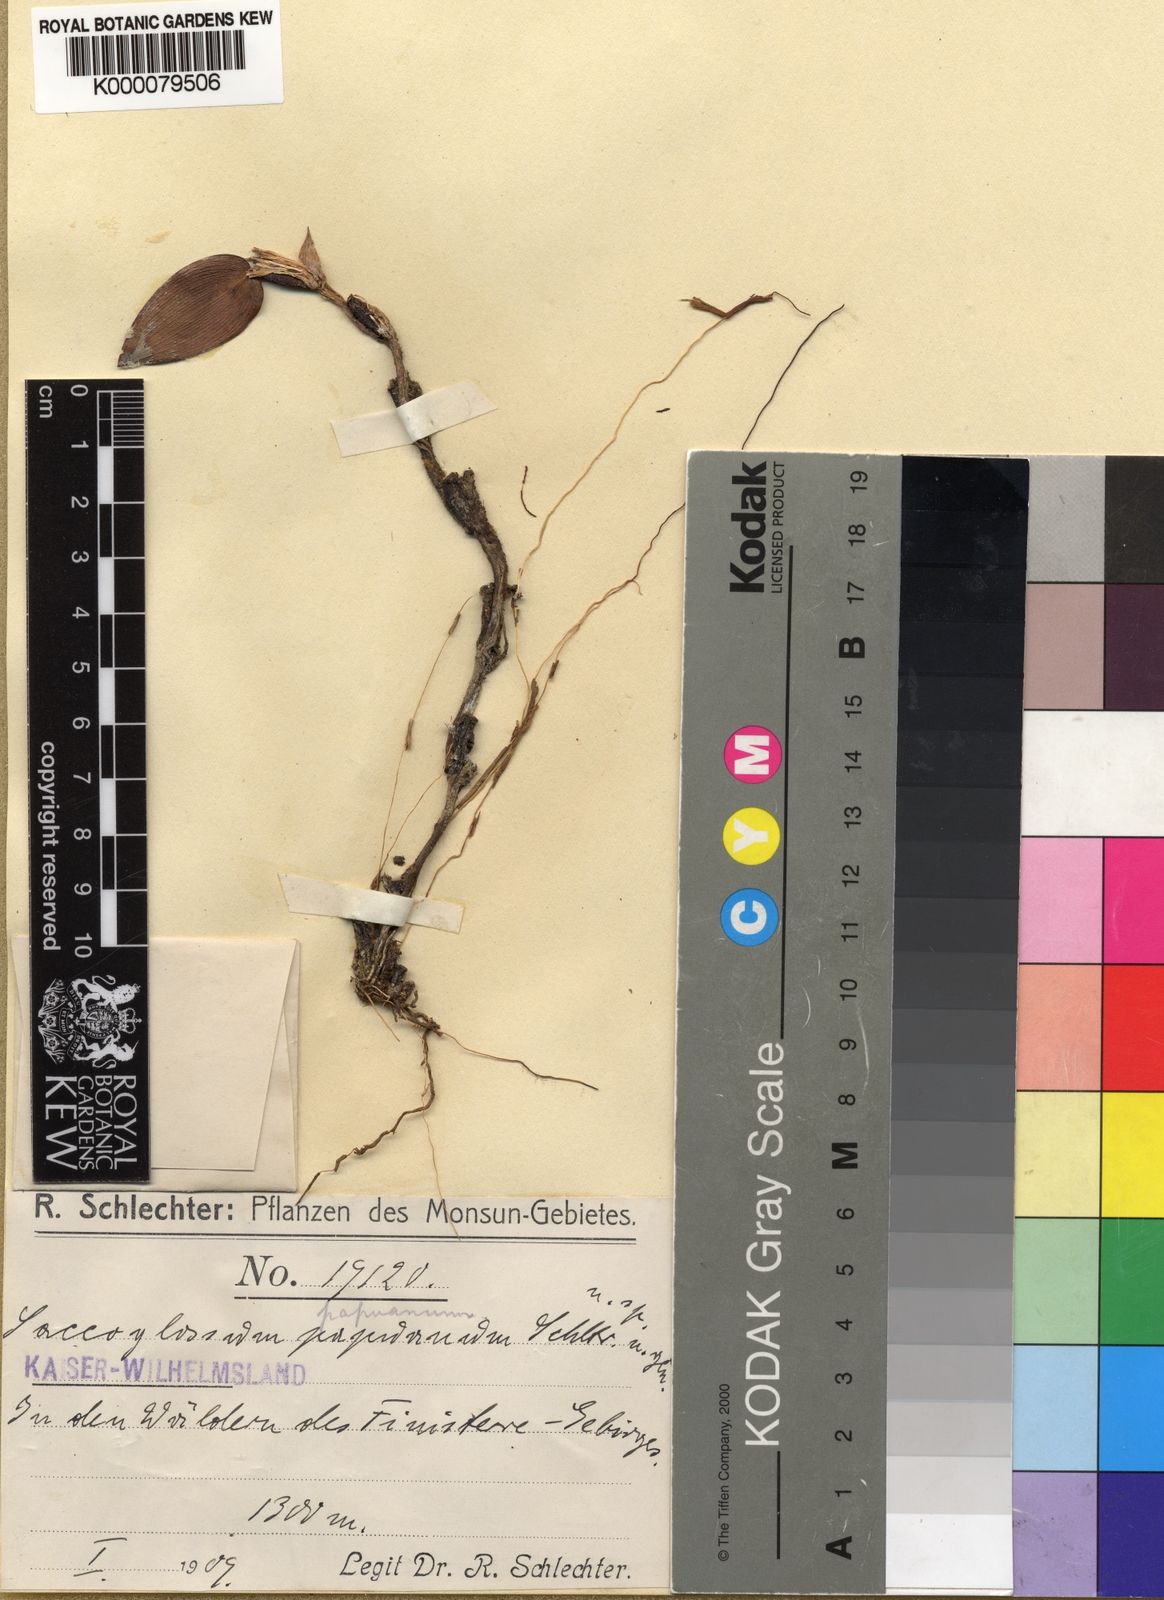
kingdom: Plantae
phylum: Tracheophyta
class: Liliopsida
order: Asparagales
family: Orchidaceae
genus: Bulbophyllum
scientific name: Bulbophyllum saccoglossum
